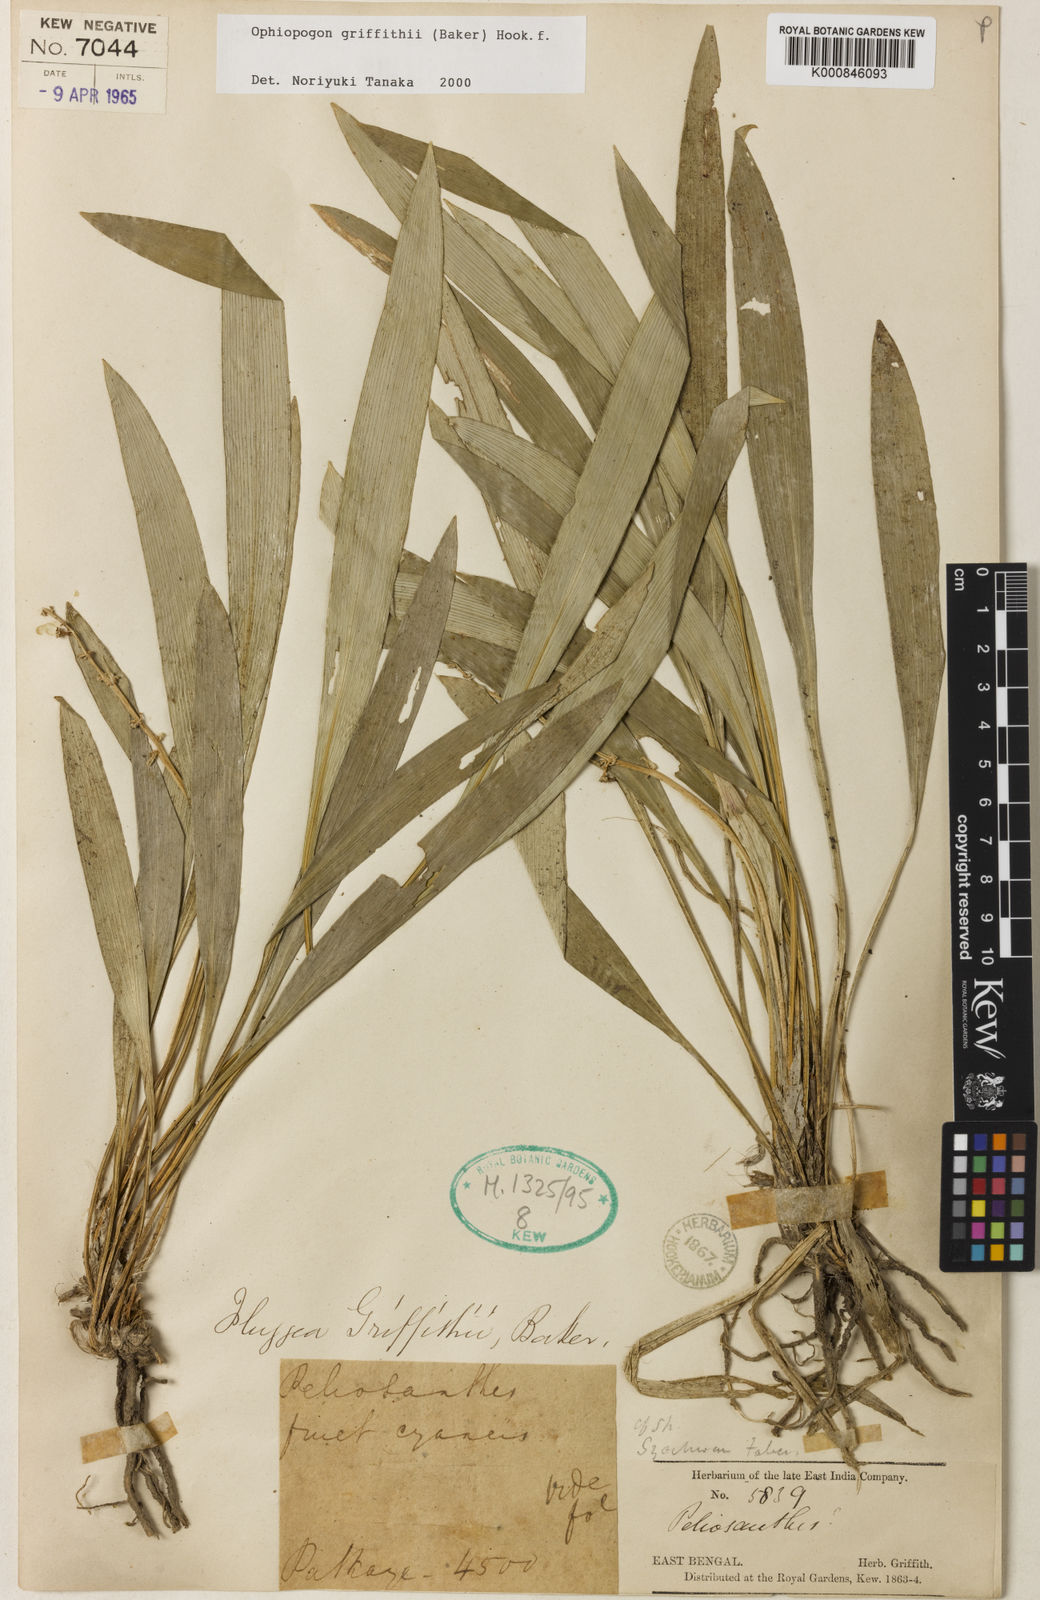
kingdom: Plantae
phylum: Tracheophyta
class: Liliopsida
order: Asparagales
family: Asparagaceae
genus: Ophiopogon
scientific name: Ophiopogon griffithii
